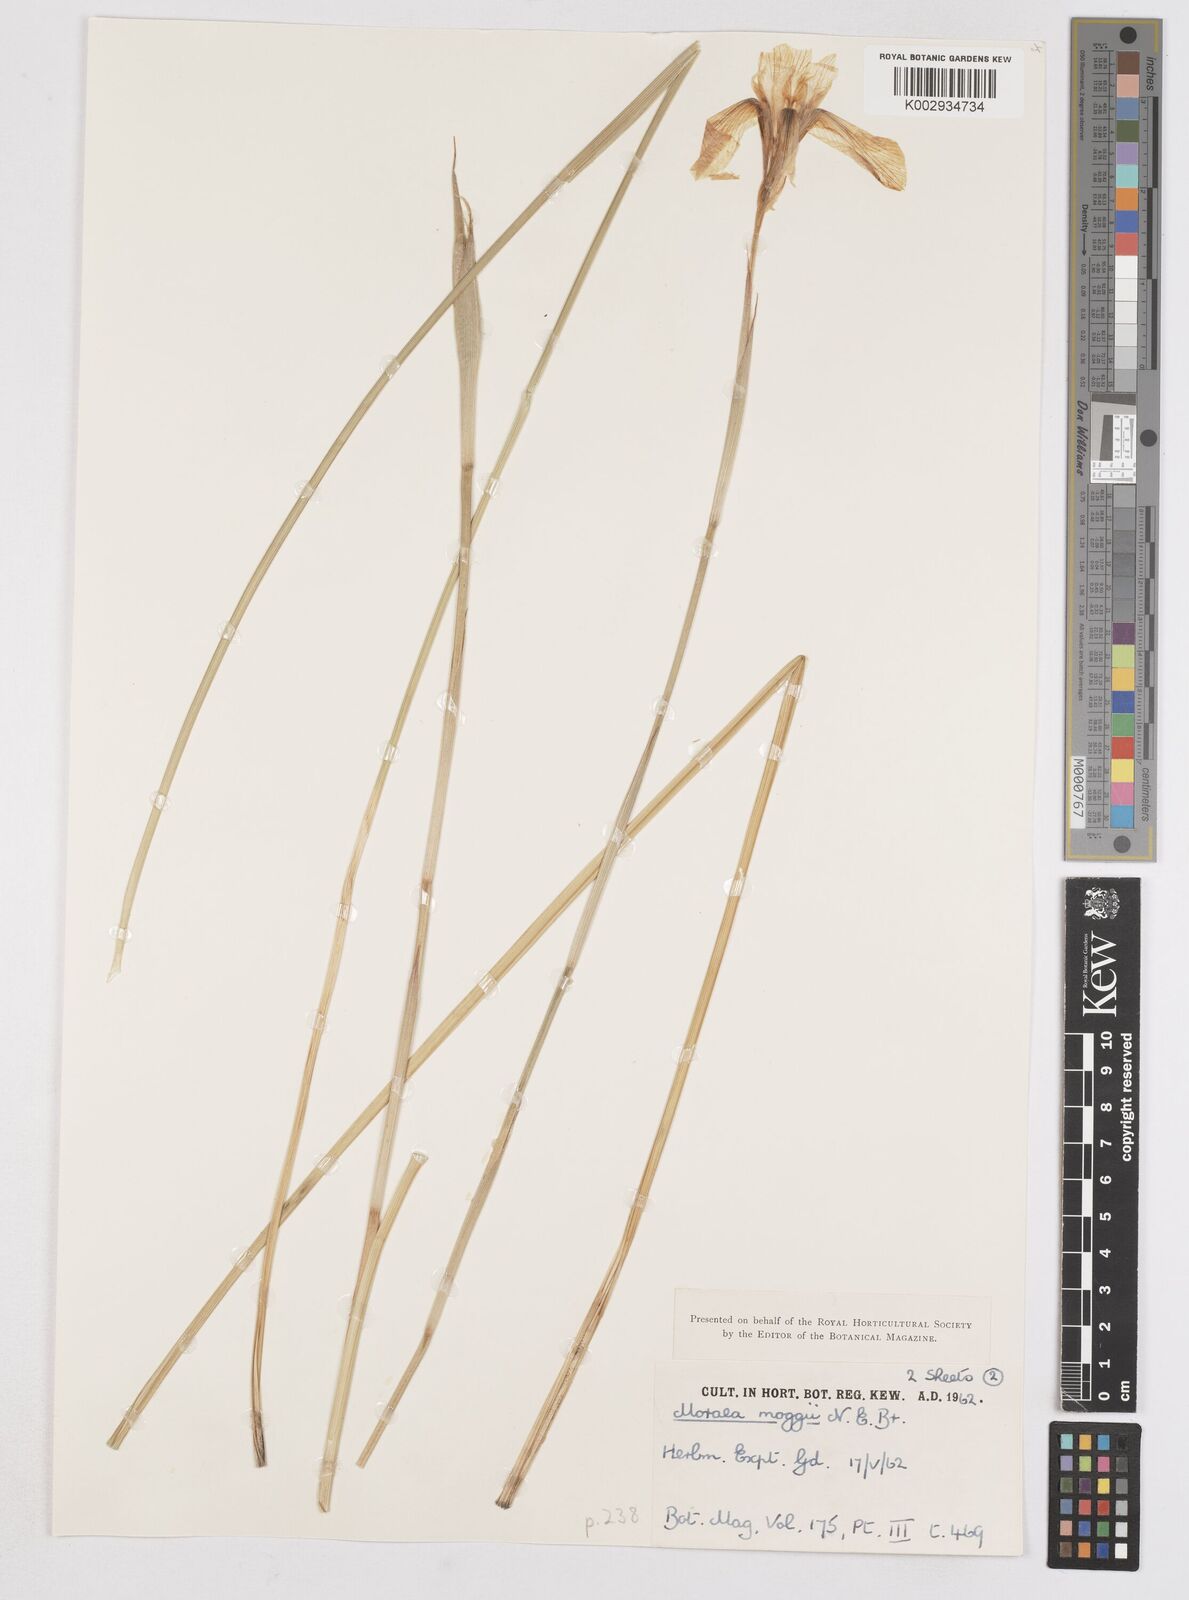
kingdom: Plantae
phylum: Tracheophyta
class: Liliopsida
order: Asparagales
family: Iridaceae
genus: Moraea
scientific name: Moraea moggii
